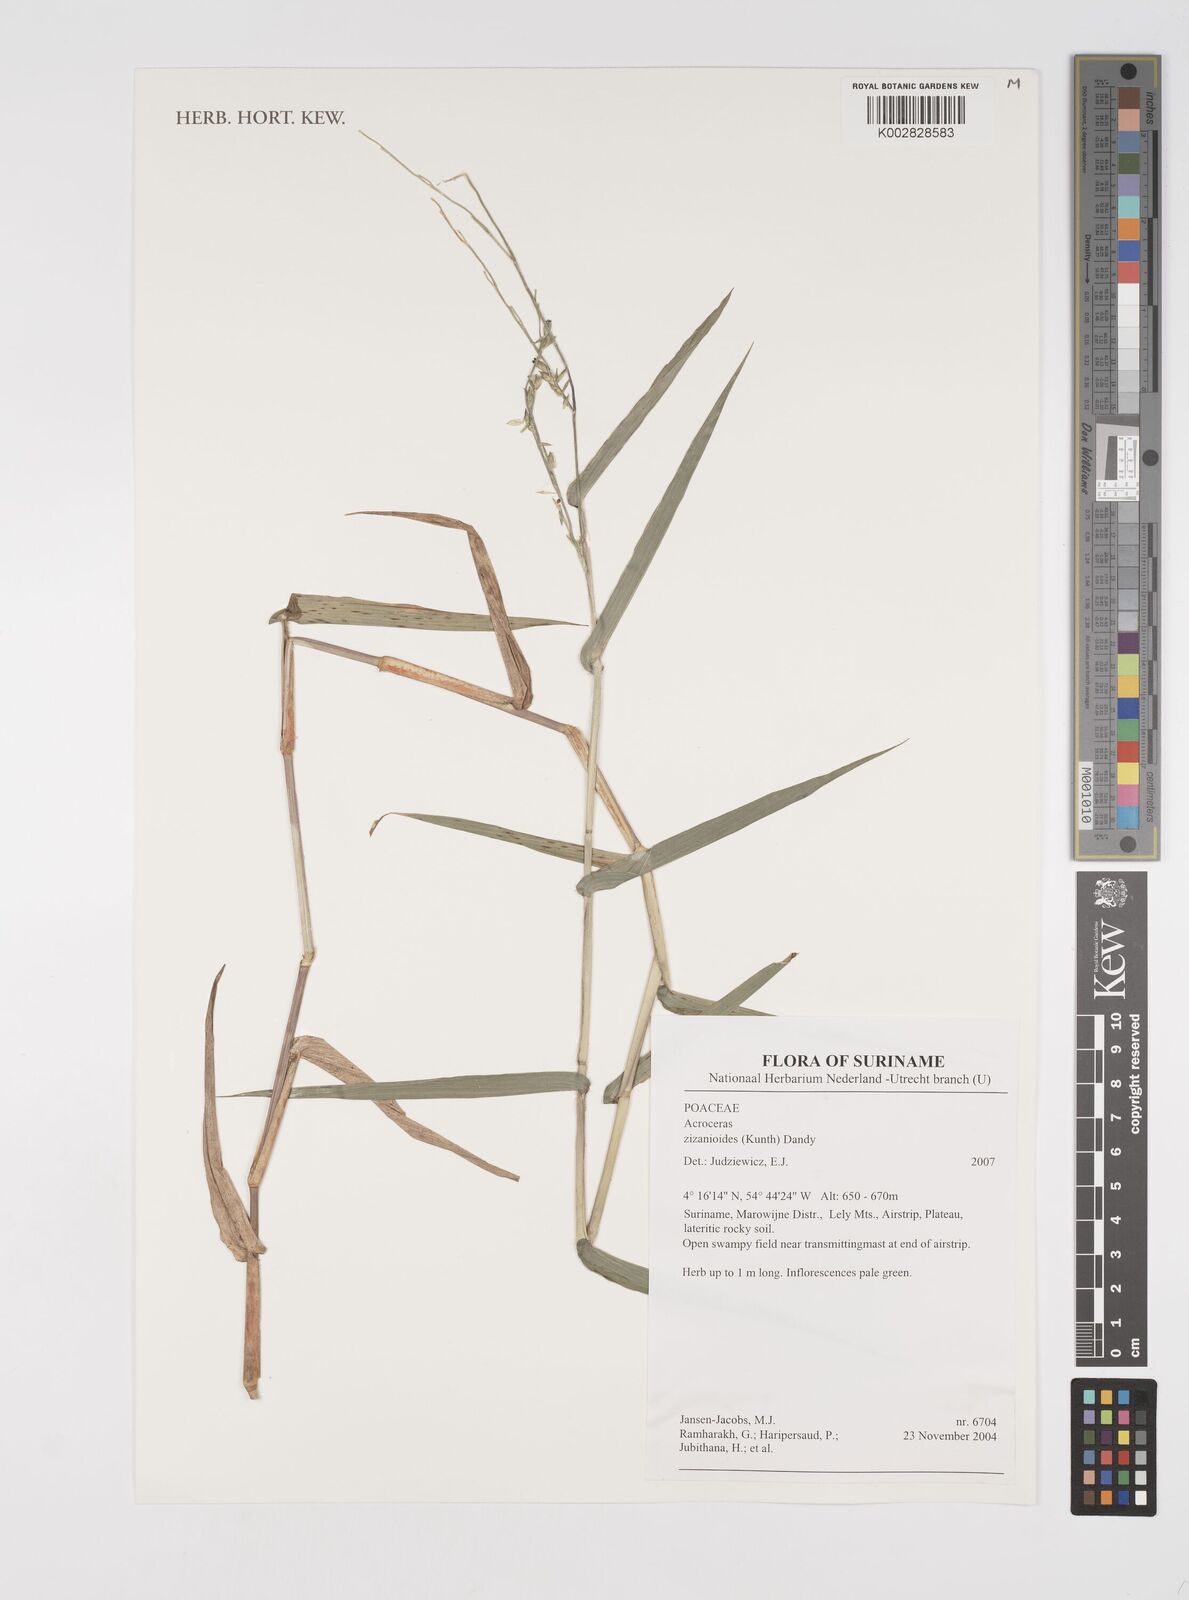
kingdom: Plantae
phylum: Tracheophyta
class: Liliopsida
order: Poales
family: Poaceae
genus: Acroceras
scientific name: Acroceras zizanioides
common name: Oat grass
